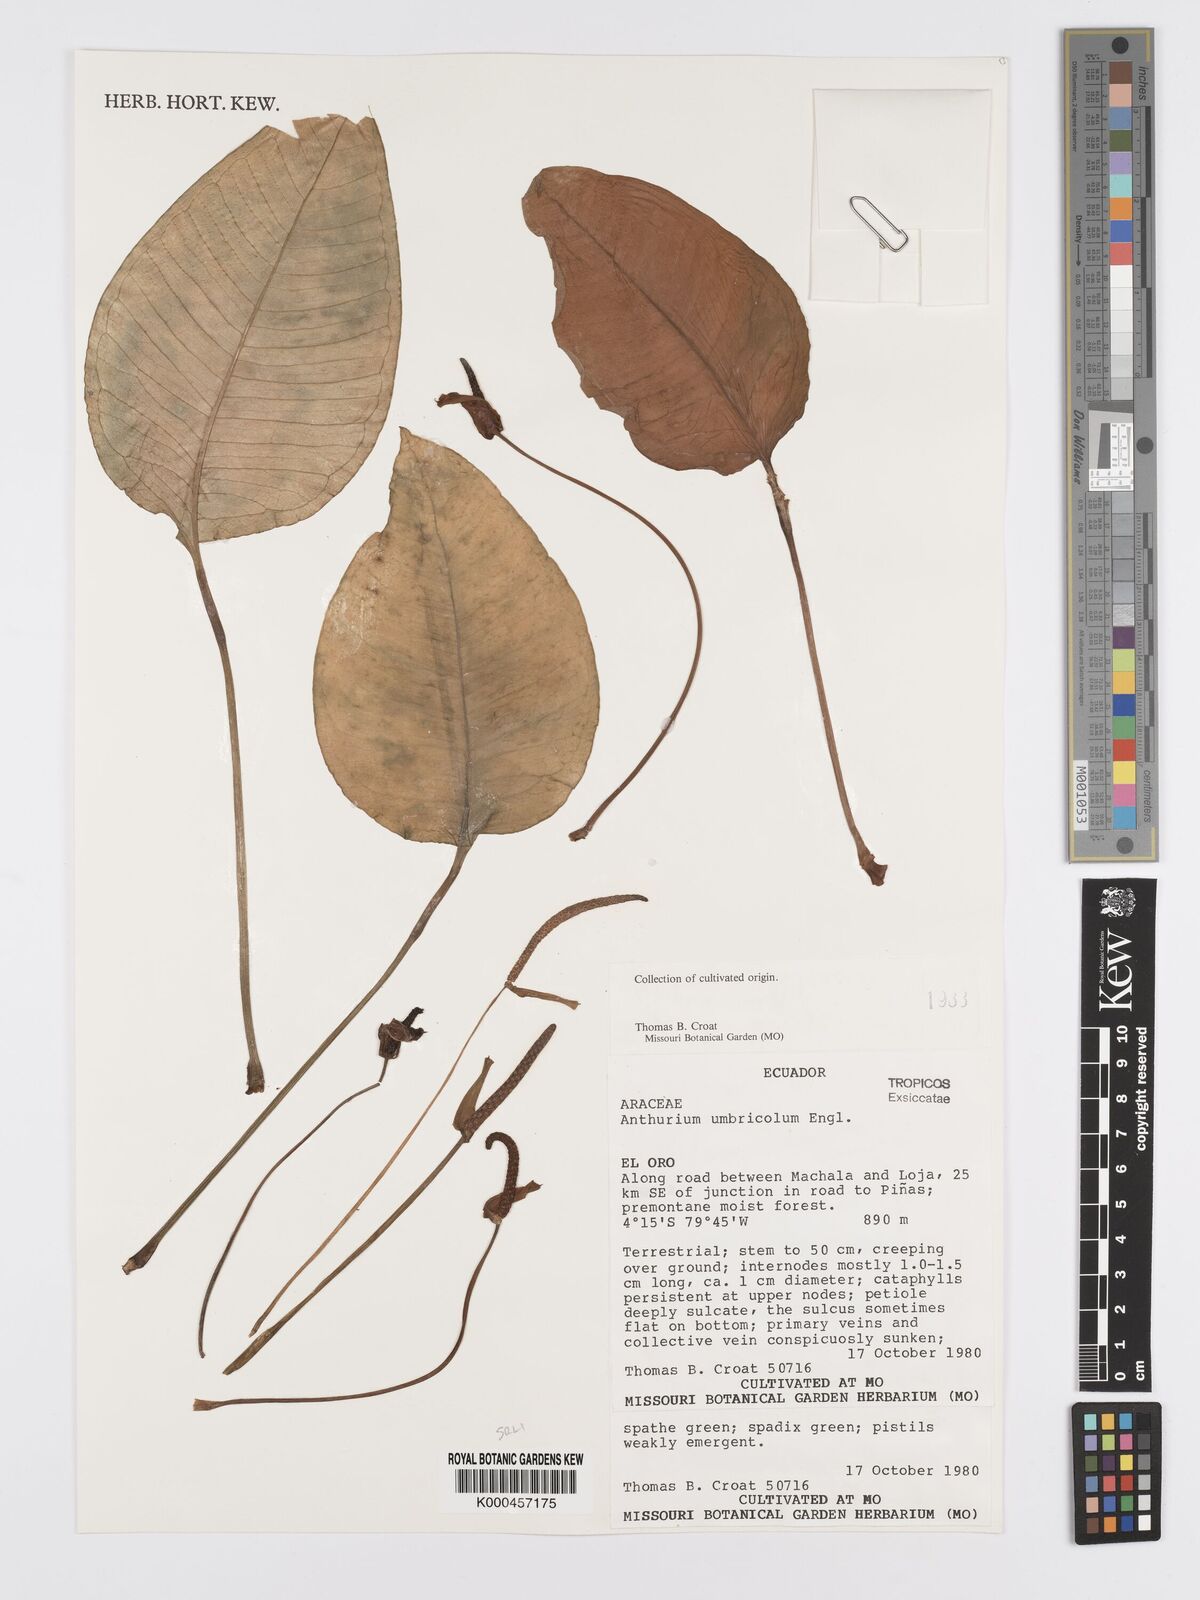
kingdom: Plantae
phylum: Tracheophyta
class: Liliopsida
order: Alismatales
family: Araceae
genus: Anthurium
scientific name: Anthurium umbricola
